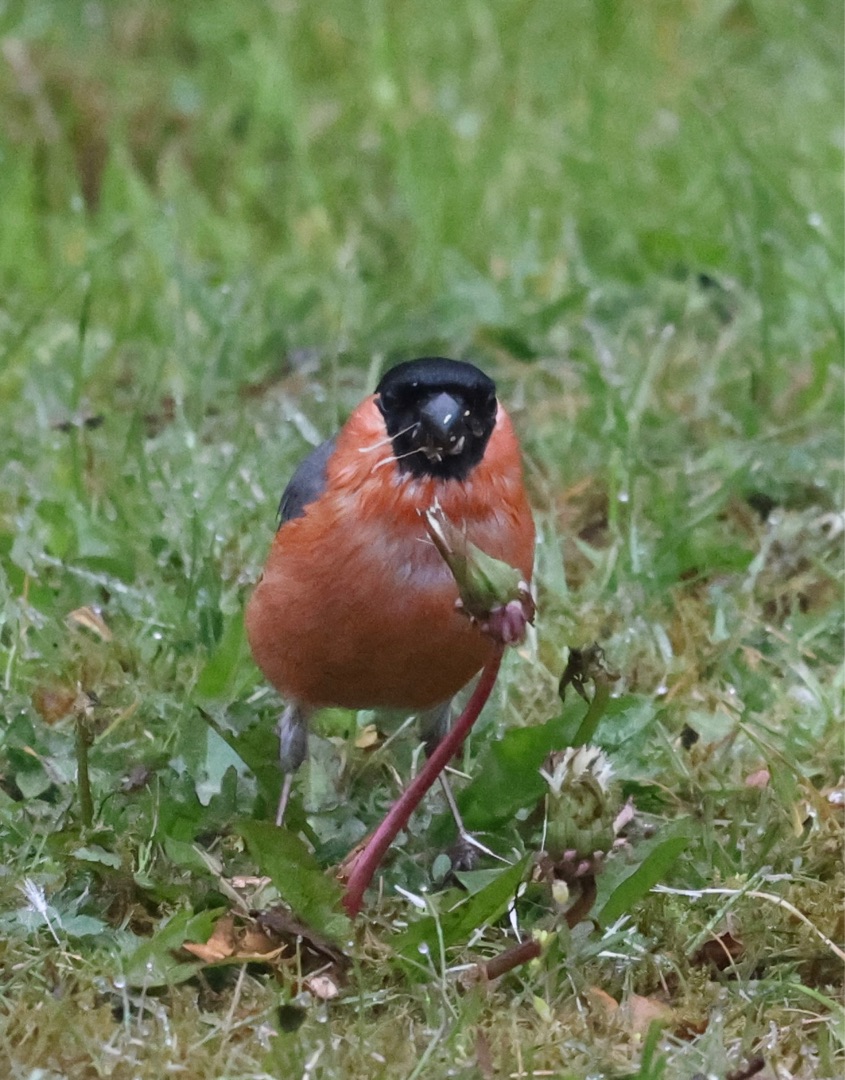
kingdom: Animalia
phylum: Chordata
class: Aves
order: Passeriformes
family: Fringillidae
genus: Pyrrhula
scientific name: Pyrrhula pyrrhula
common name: Dompap
